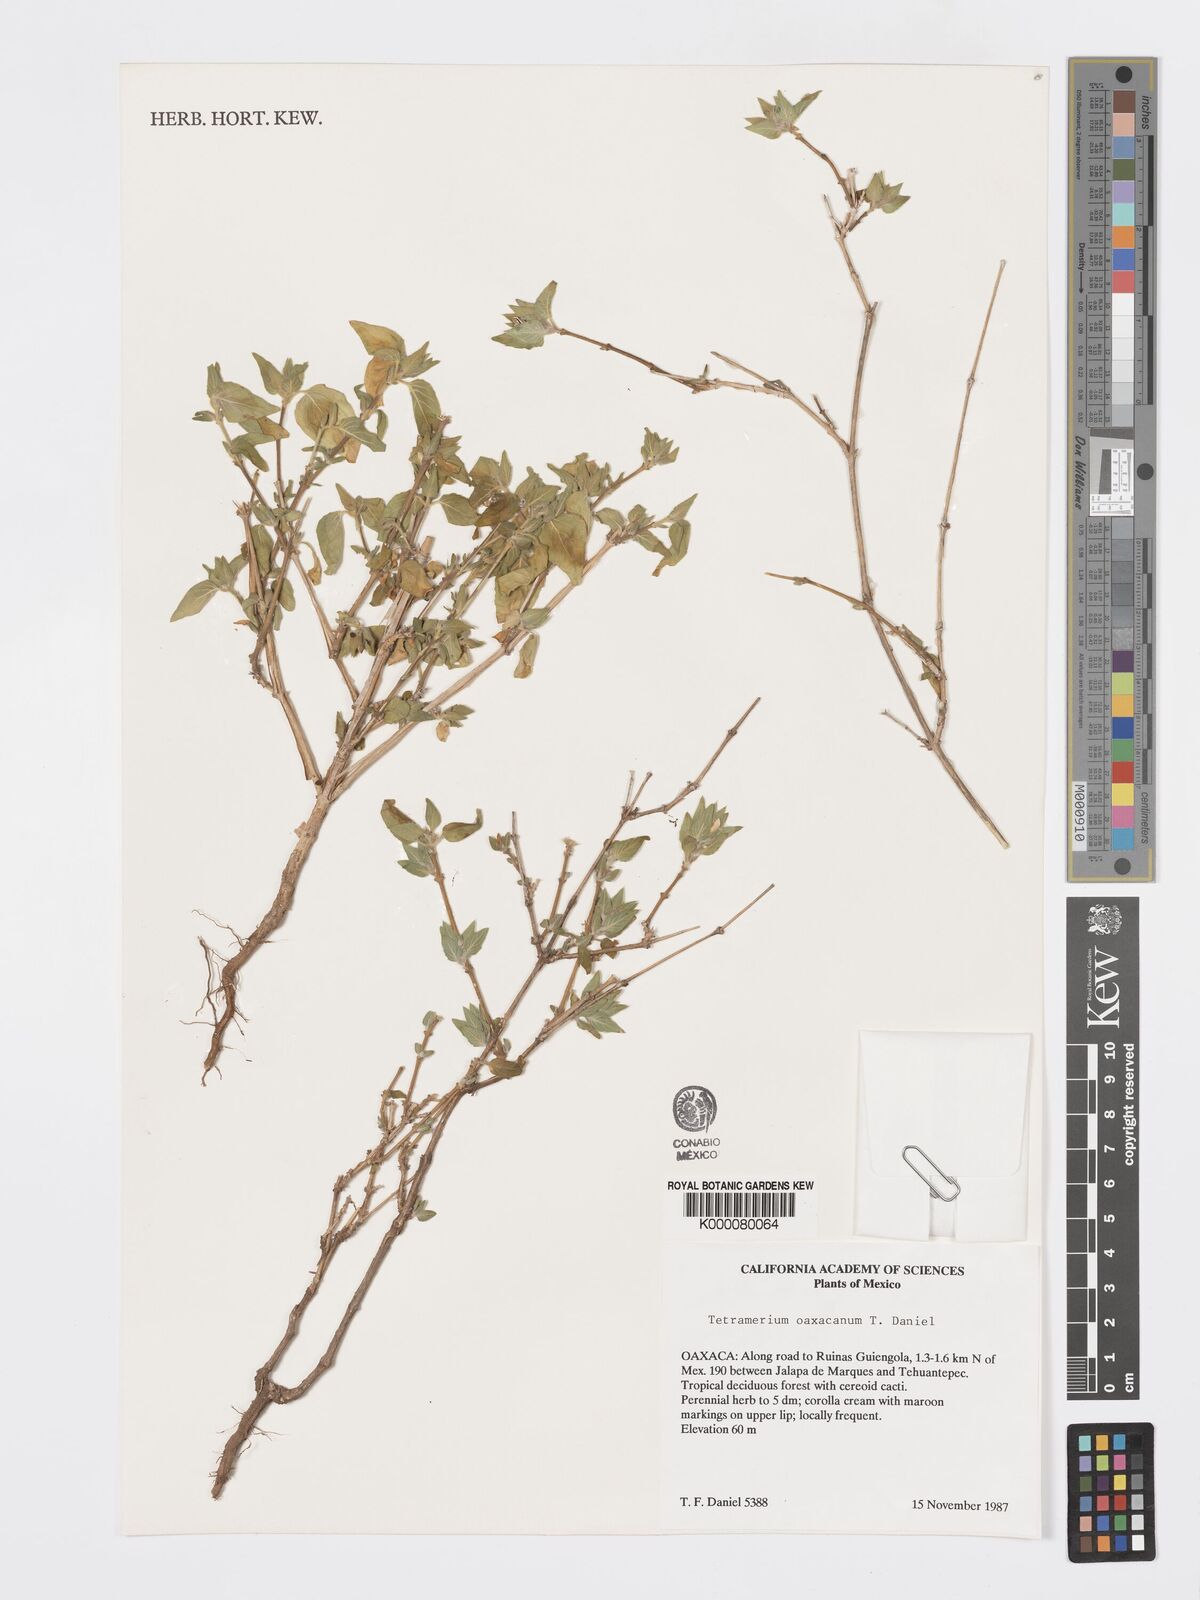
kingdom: Plantae
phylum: Tracheophyta
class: Magnoliopsida
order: Lamiales
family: Acanthaceae
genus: Tetramerium
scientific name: Tetramerium oaxacanum
